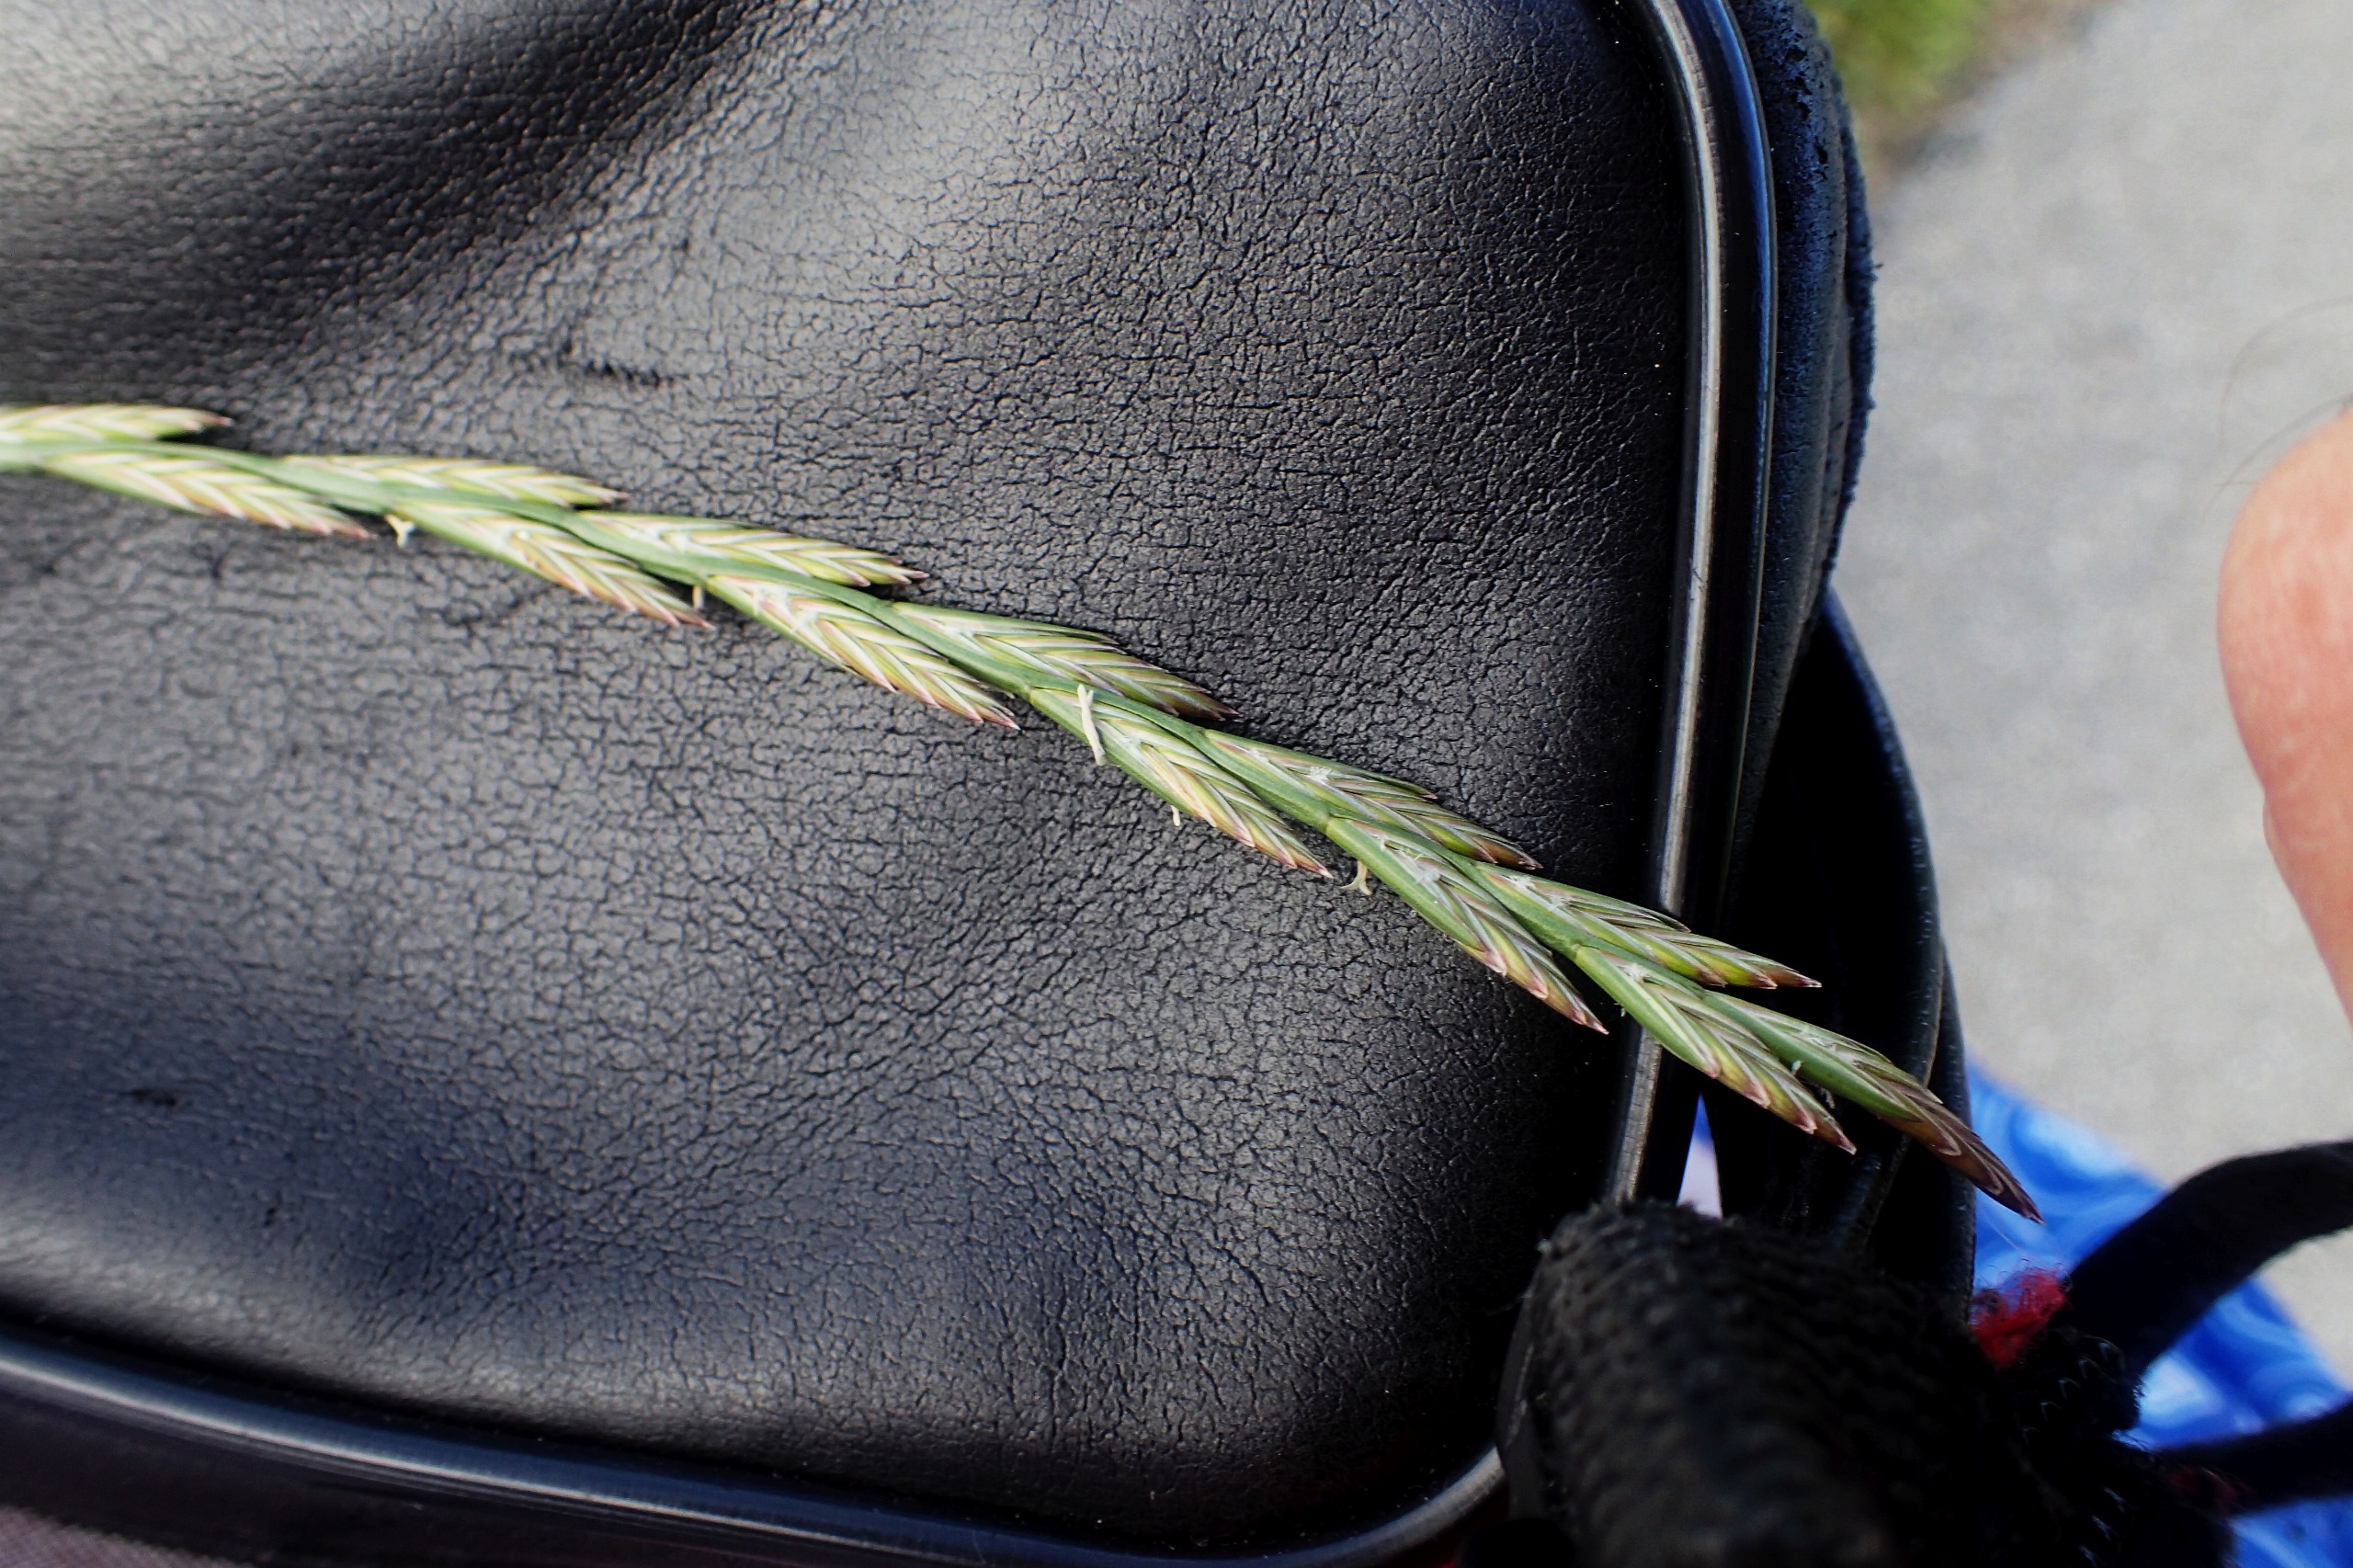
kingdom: Plantae
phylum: Tracheophyta
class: Liliopsida
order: Poales
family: Poaceae
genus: Lolium
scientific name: Lolium perenne
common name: Almindelig rajgræs
